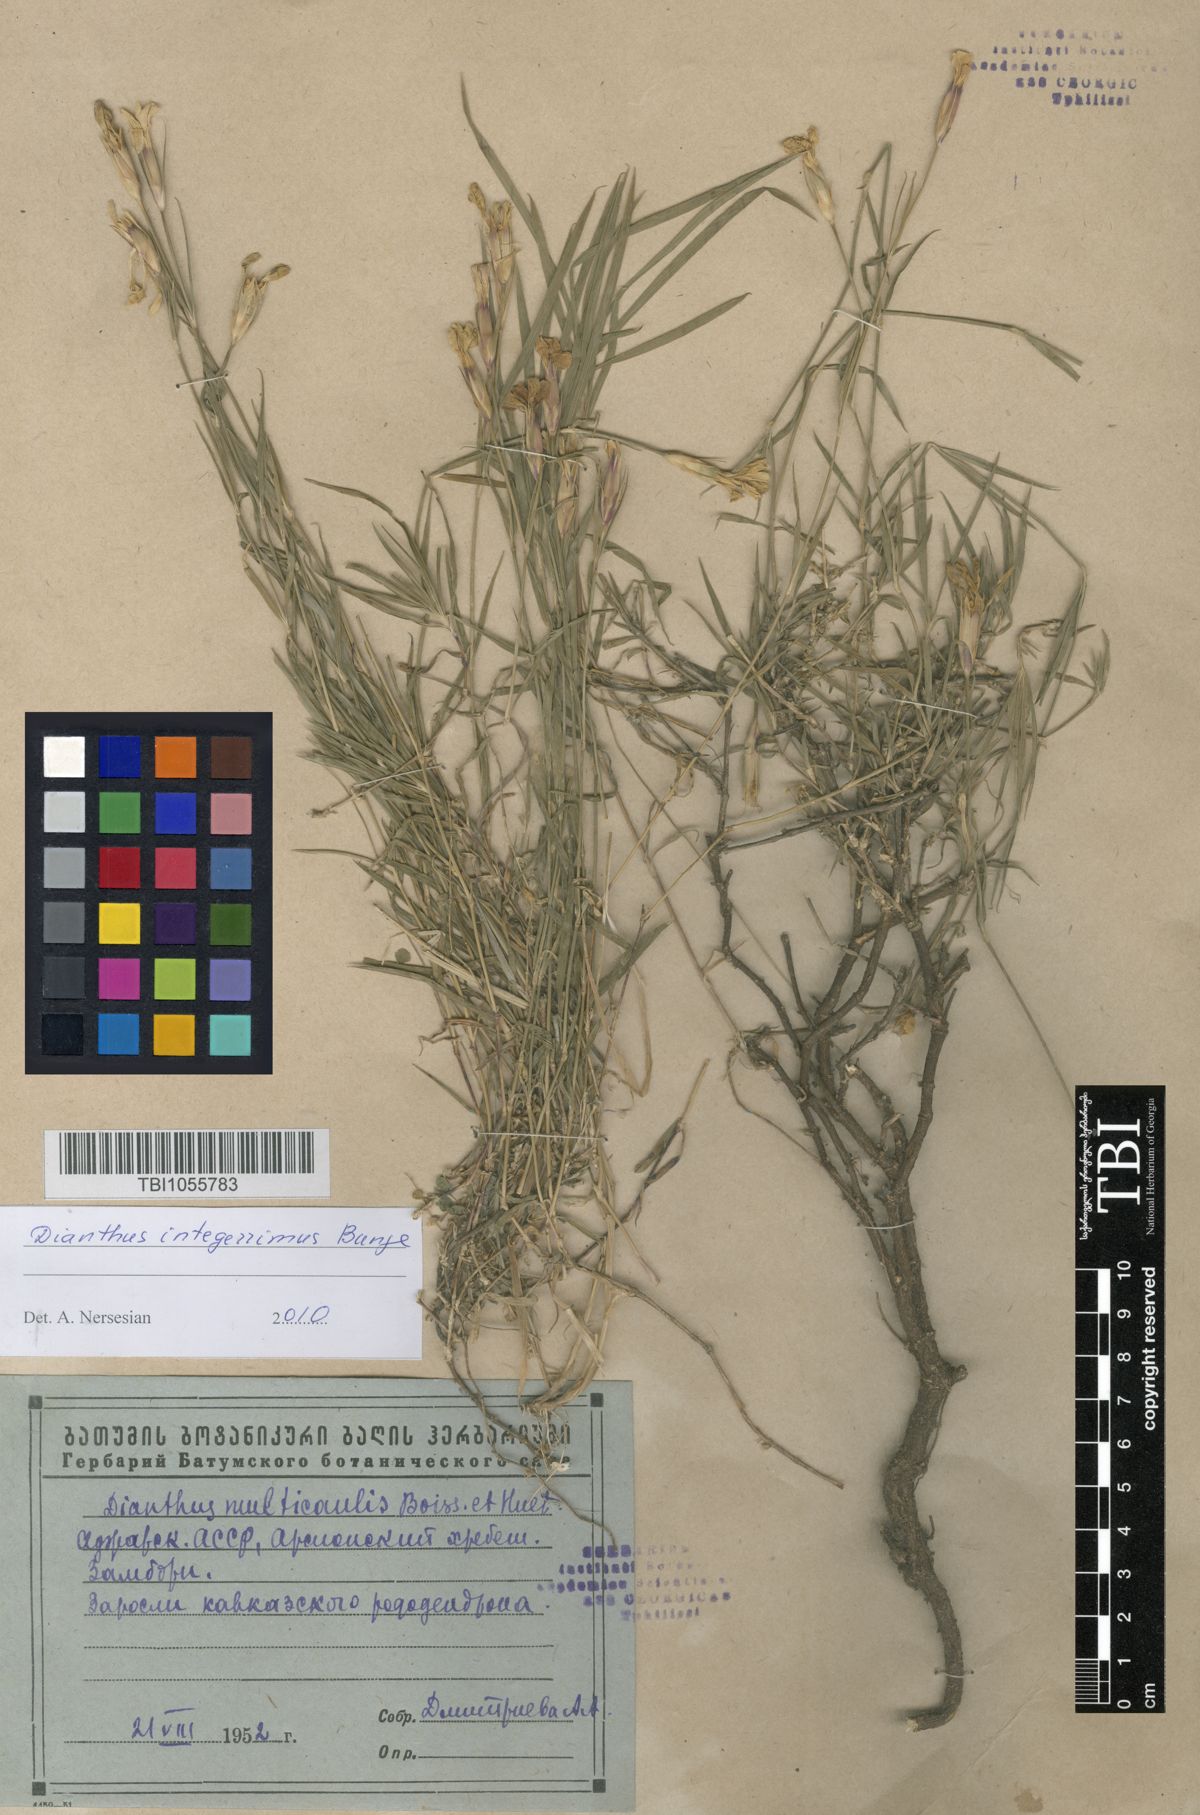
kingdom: Plantae
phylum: Tracheophyta
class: Magnoliopsida
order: Caryophyllales
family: Caryophyllaceae
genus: Dianthus
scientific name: Dianthus cretaceus
